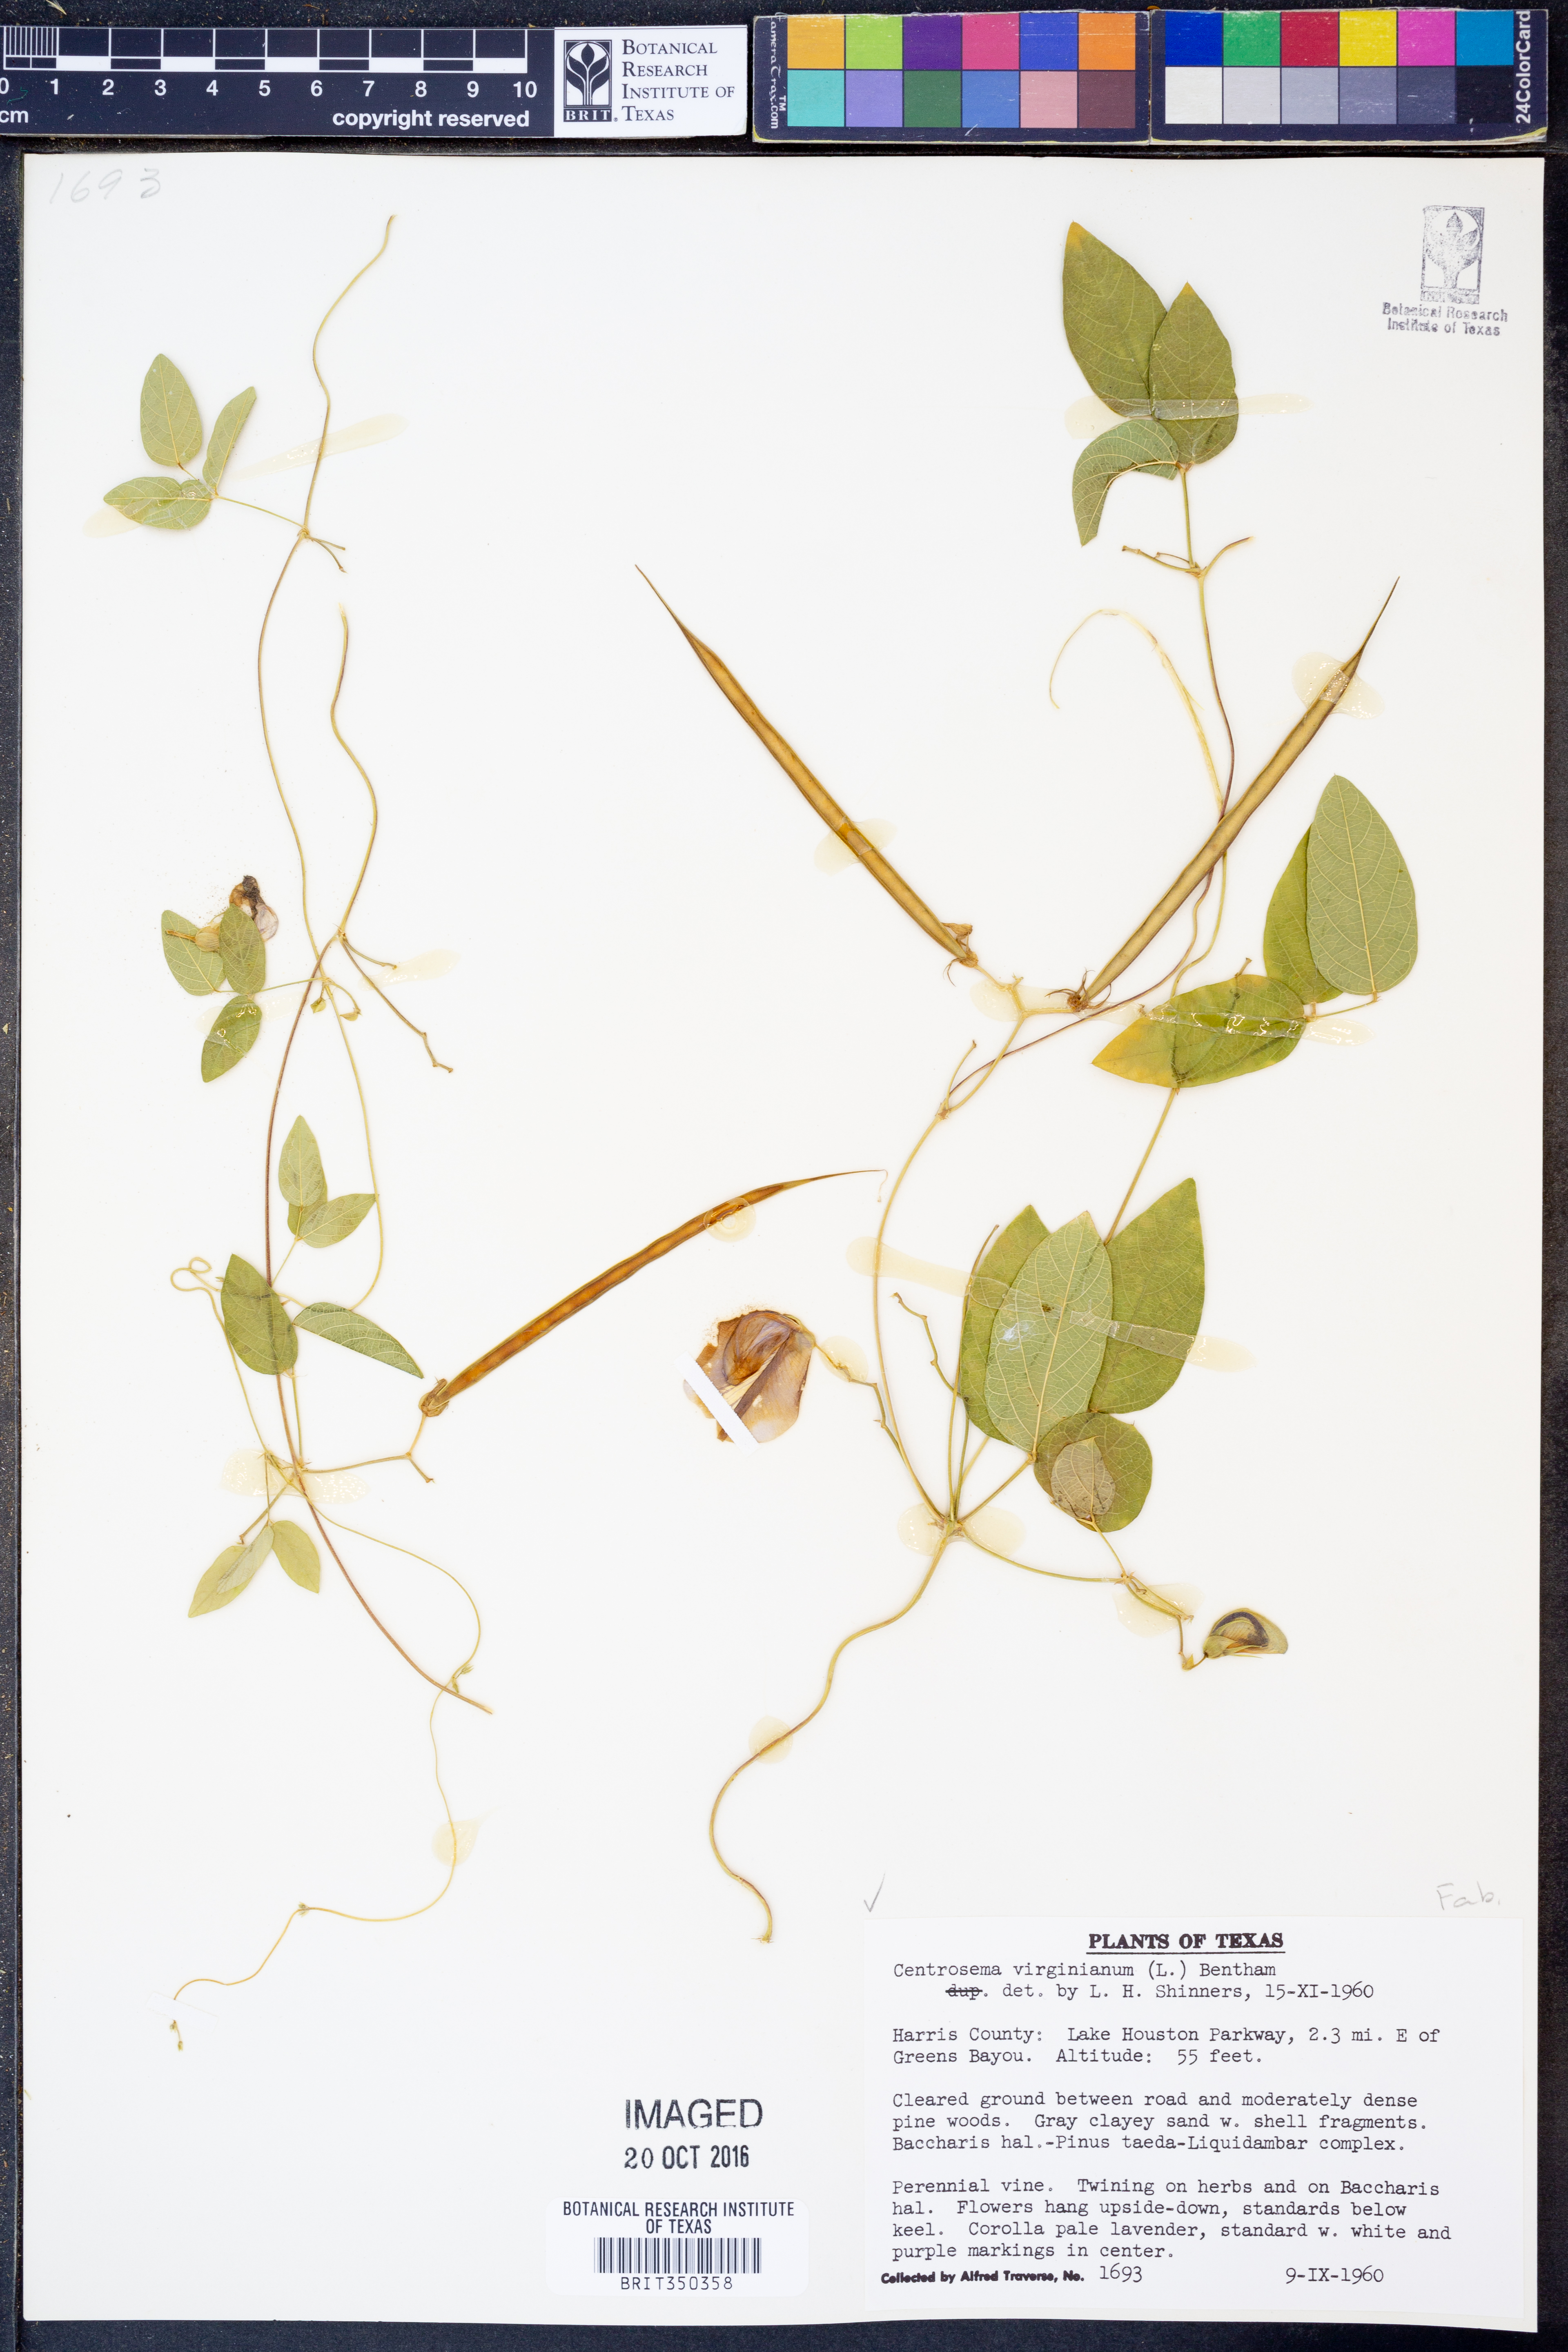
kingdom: Plantae
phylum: Tracheophyta
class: Magnoliopsida
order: Fabales
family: Fabaceae
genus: Centrosema
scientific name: Centrosema virginianum
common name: Butterfly-pea
